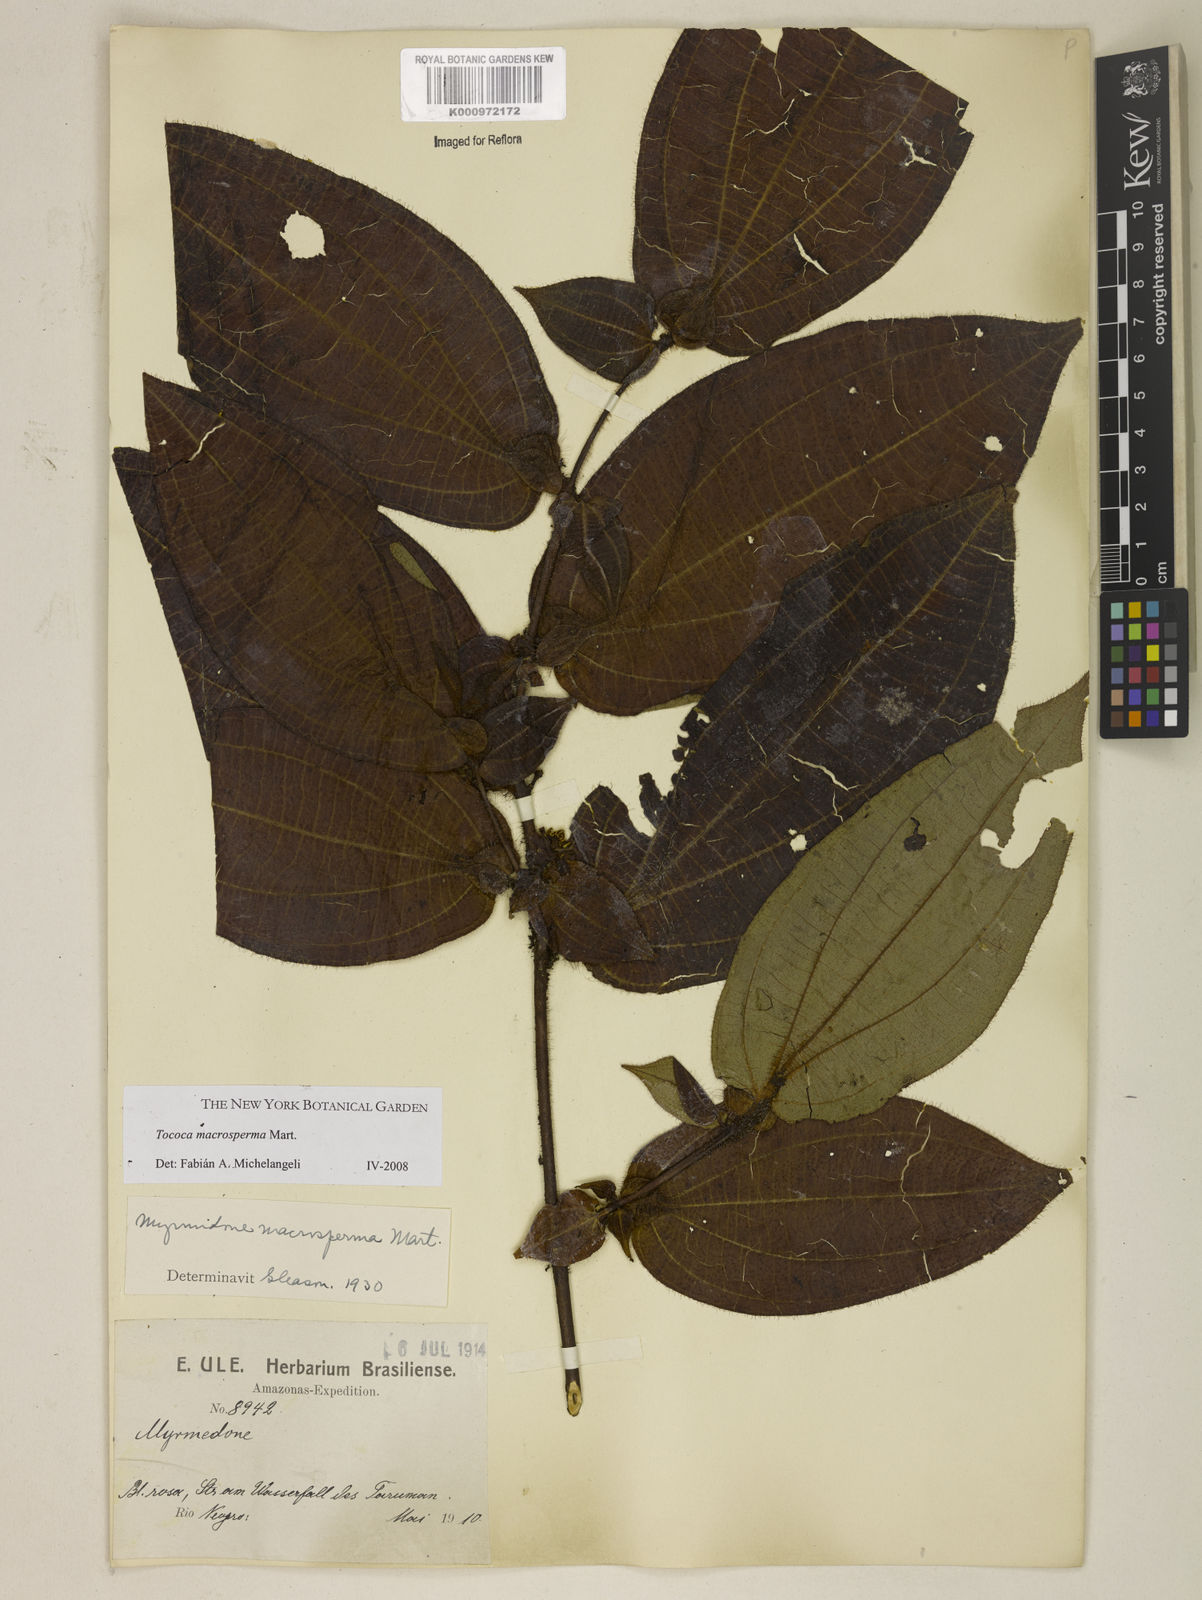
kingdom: Plantae
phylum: Tracheophyta
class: Magnoliopsida
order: Myrtales
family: Melastomataceae
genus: Miconia
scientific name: Miconia macrosperma
